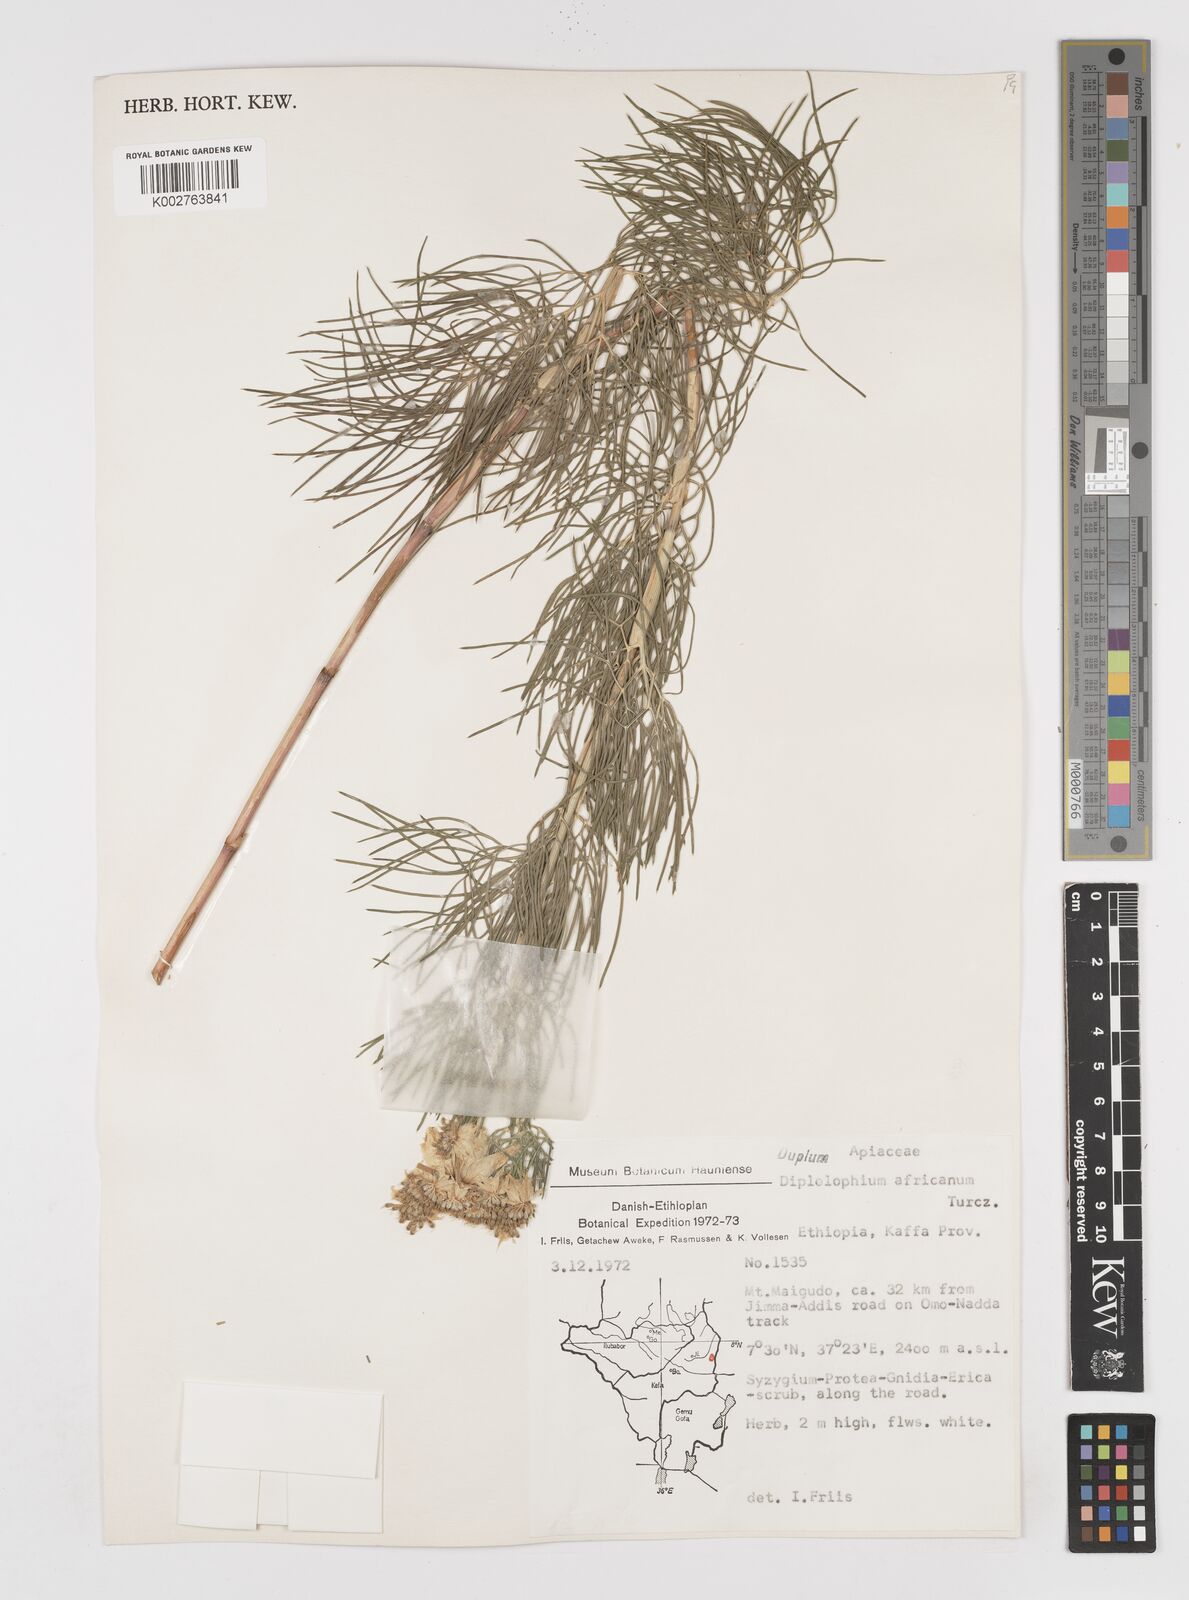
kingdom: Plantae
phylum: Tracheophyta
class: Magnoliopsida
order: Apiales
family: Apiaceae
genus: Diplolophium
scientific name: Diplolophium africanum
